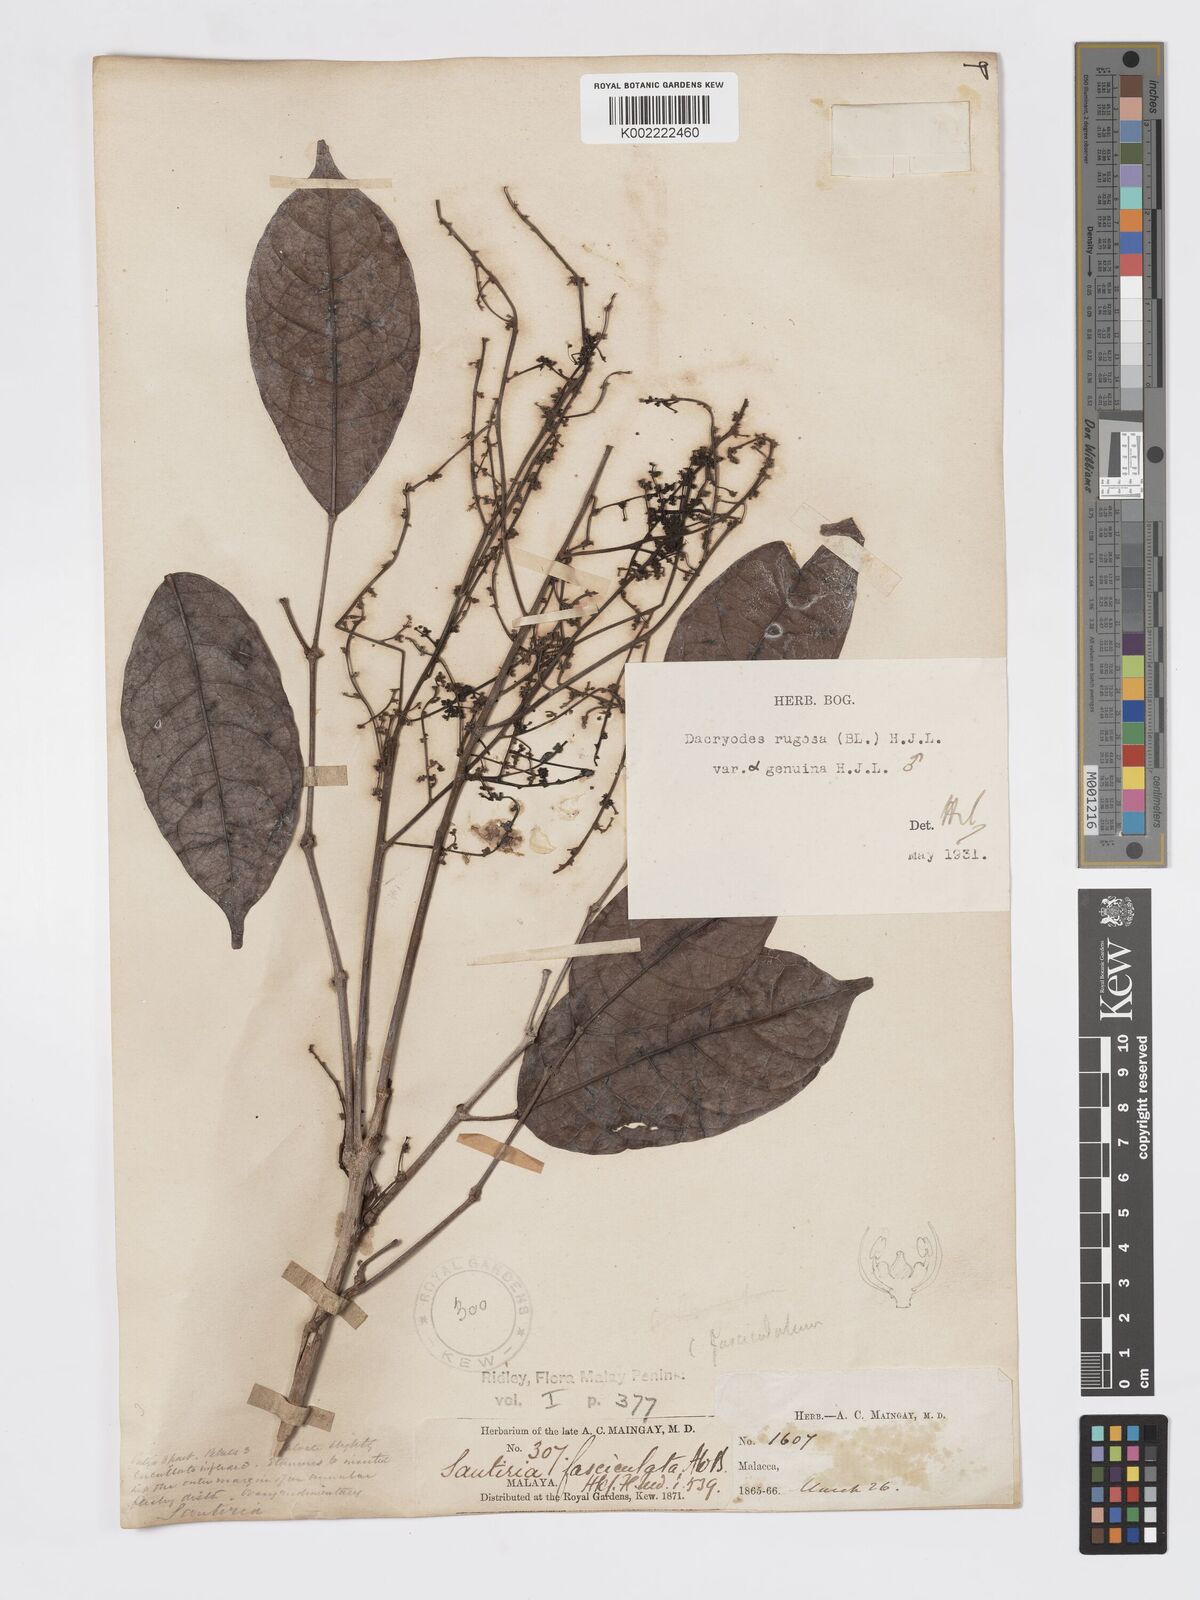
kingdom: Plantae
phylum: Tracheophyta
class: Magnoliopsida
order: Sapindales
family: Burseraceae
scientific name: Burseraceae
